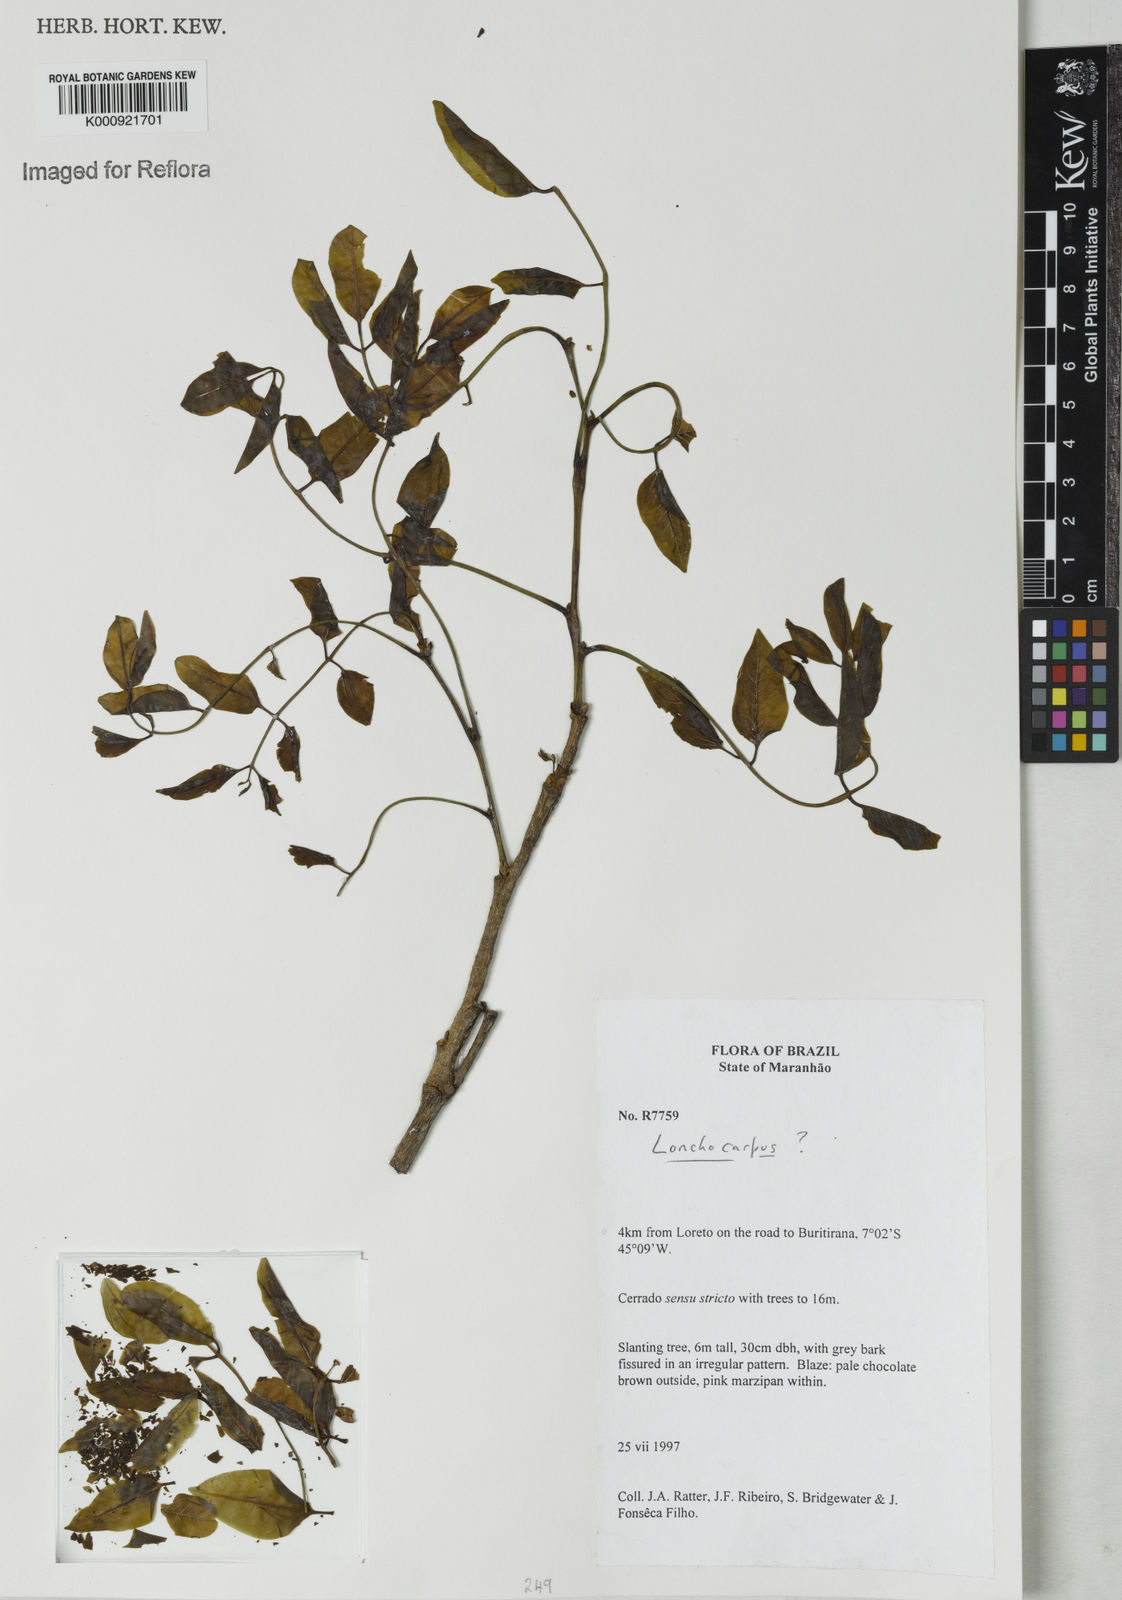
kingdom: Plantae
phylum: Tracheophyta
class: Magnoliopsida
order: Fabales
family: Fabaceae
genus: Lonchocarpus
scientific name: Lonchocarpus
